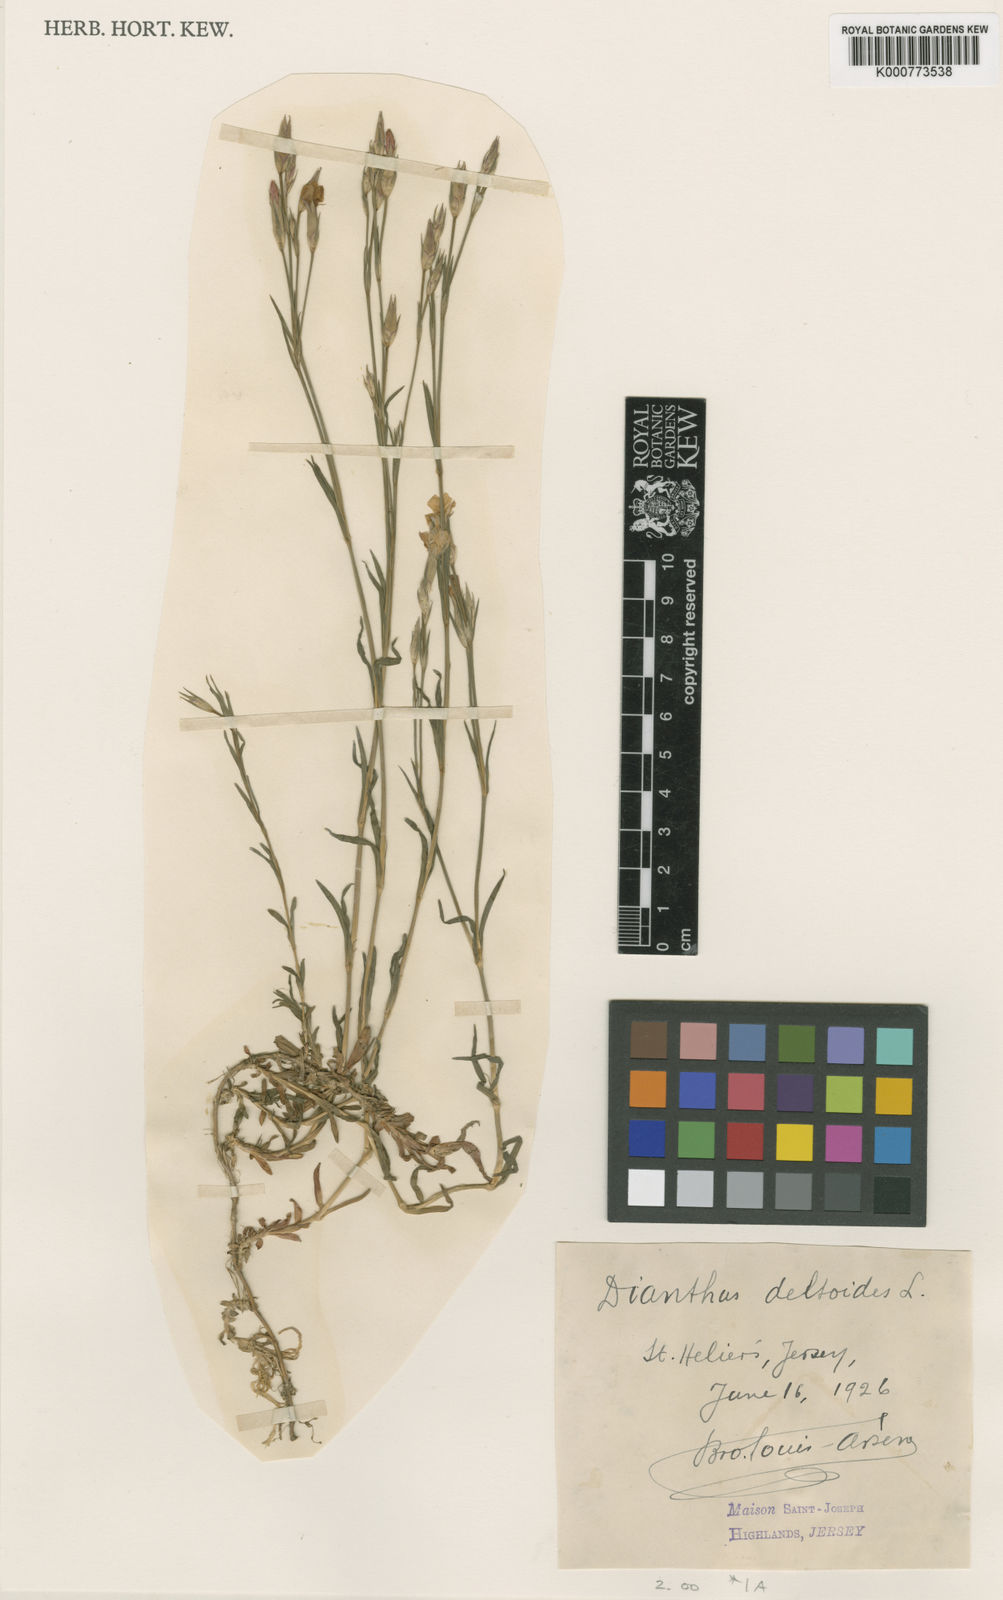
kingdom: Plantae
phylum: Tracheophyta
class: Magnoliopsida
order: Caryophyllales
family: Caryophyllaceae
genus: Dianthus
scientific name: Dianthus deltoides
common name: Maiden pink
